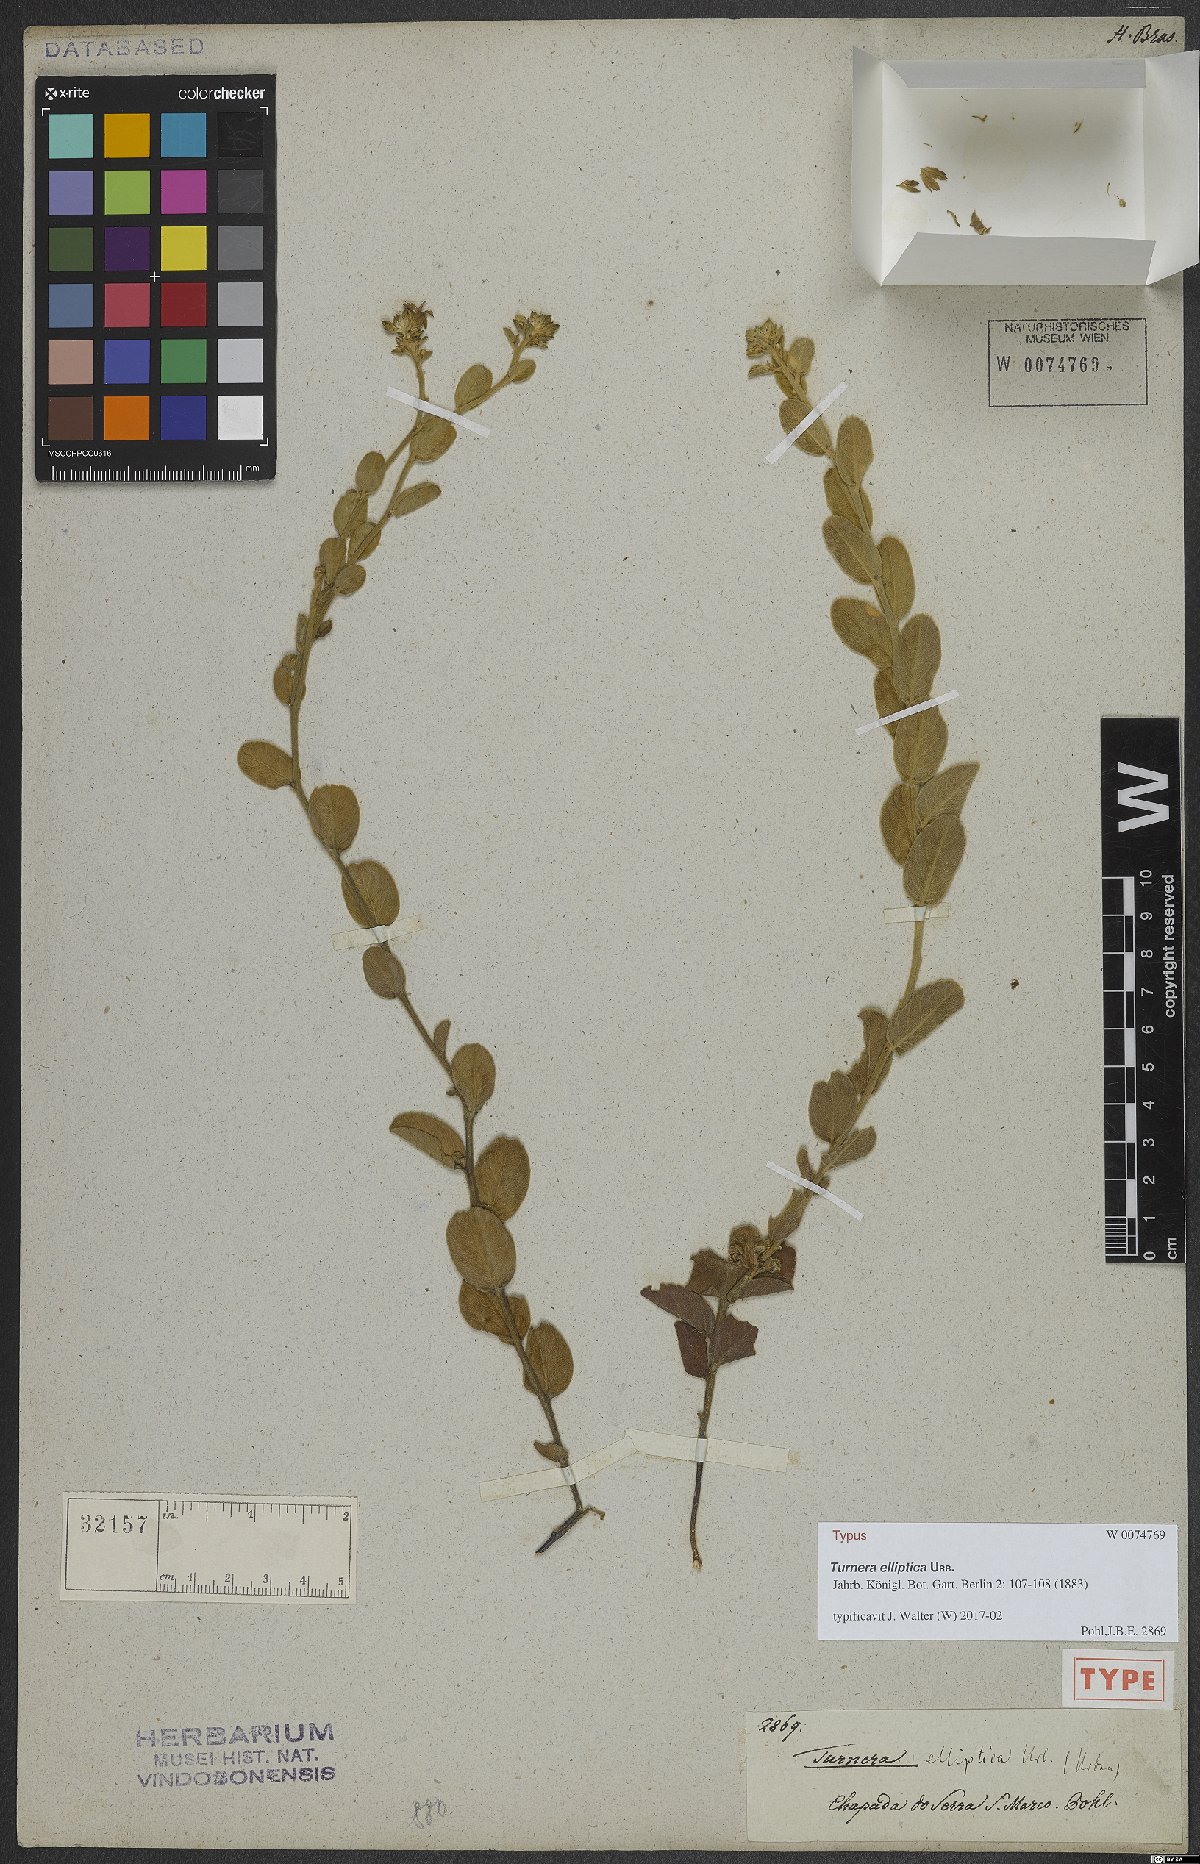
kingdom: Plantae
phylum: Tracheophyta
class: Magnoliopsida
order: Malpighiales
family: Turneraceae
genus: Turnera
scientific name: Turnera elliptica
